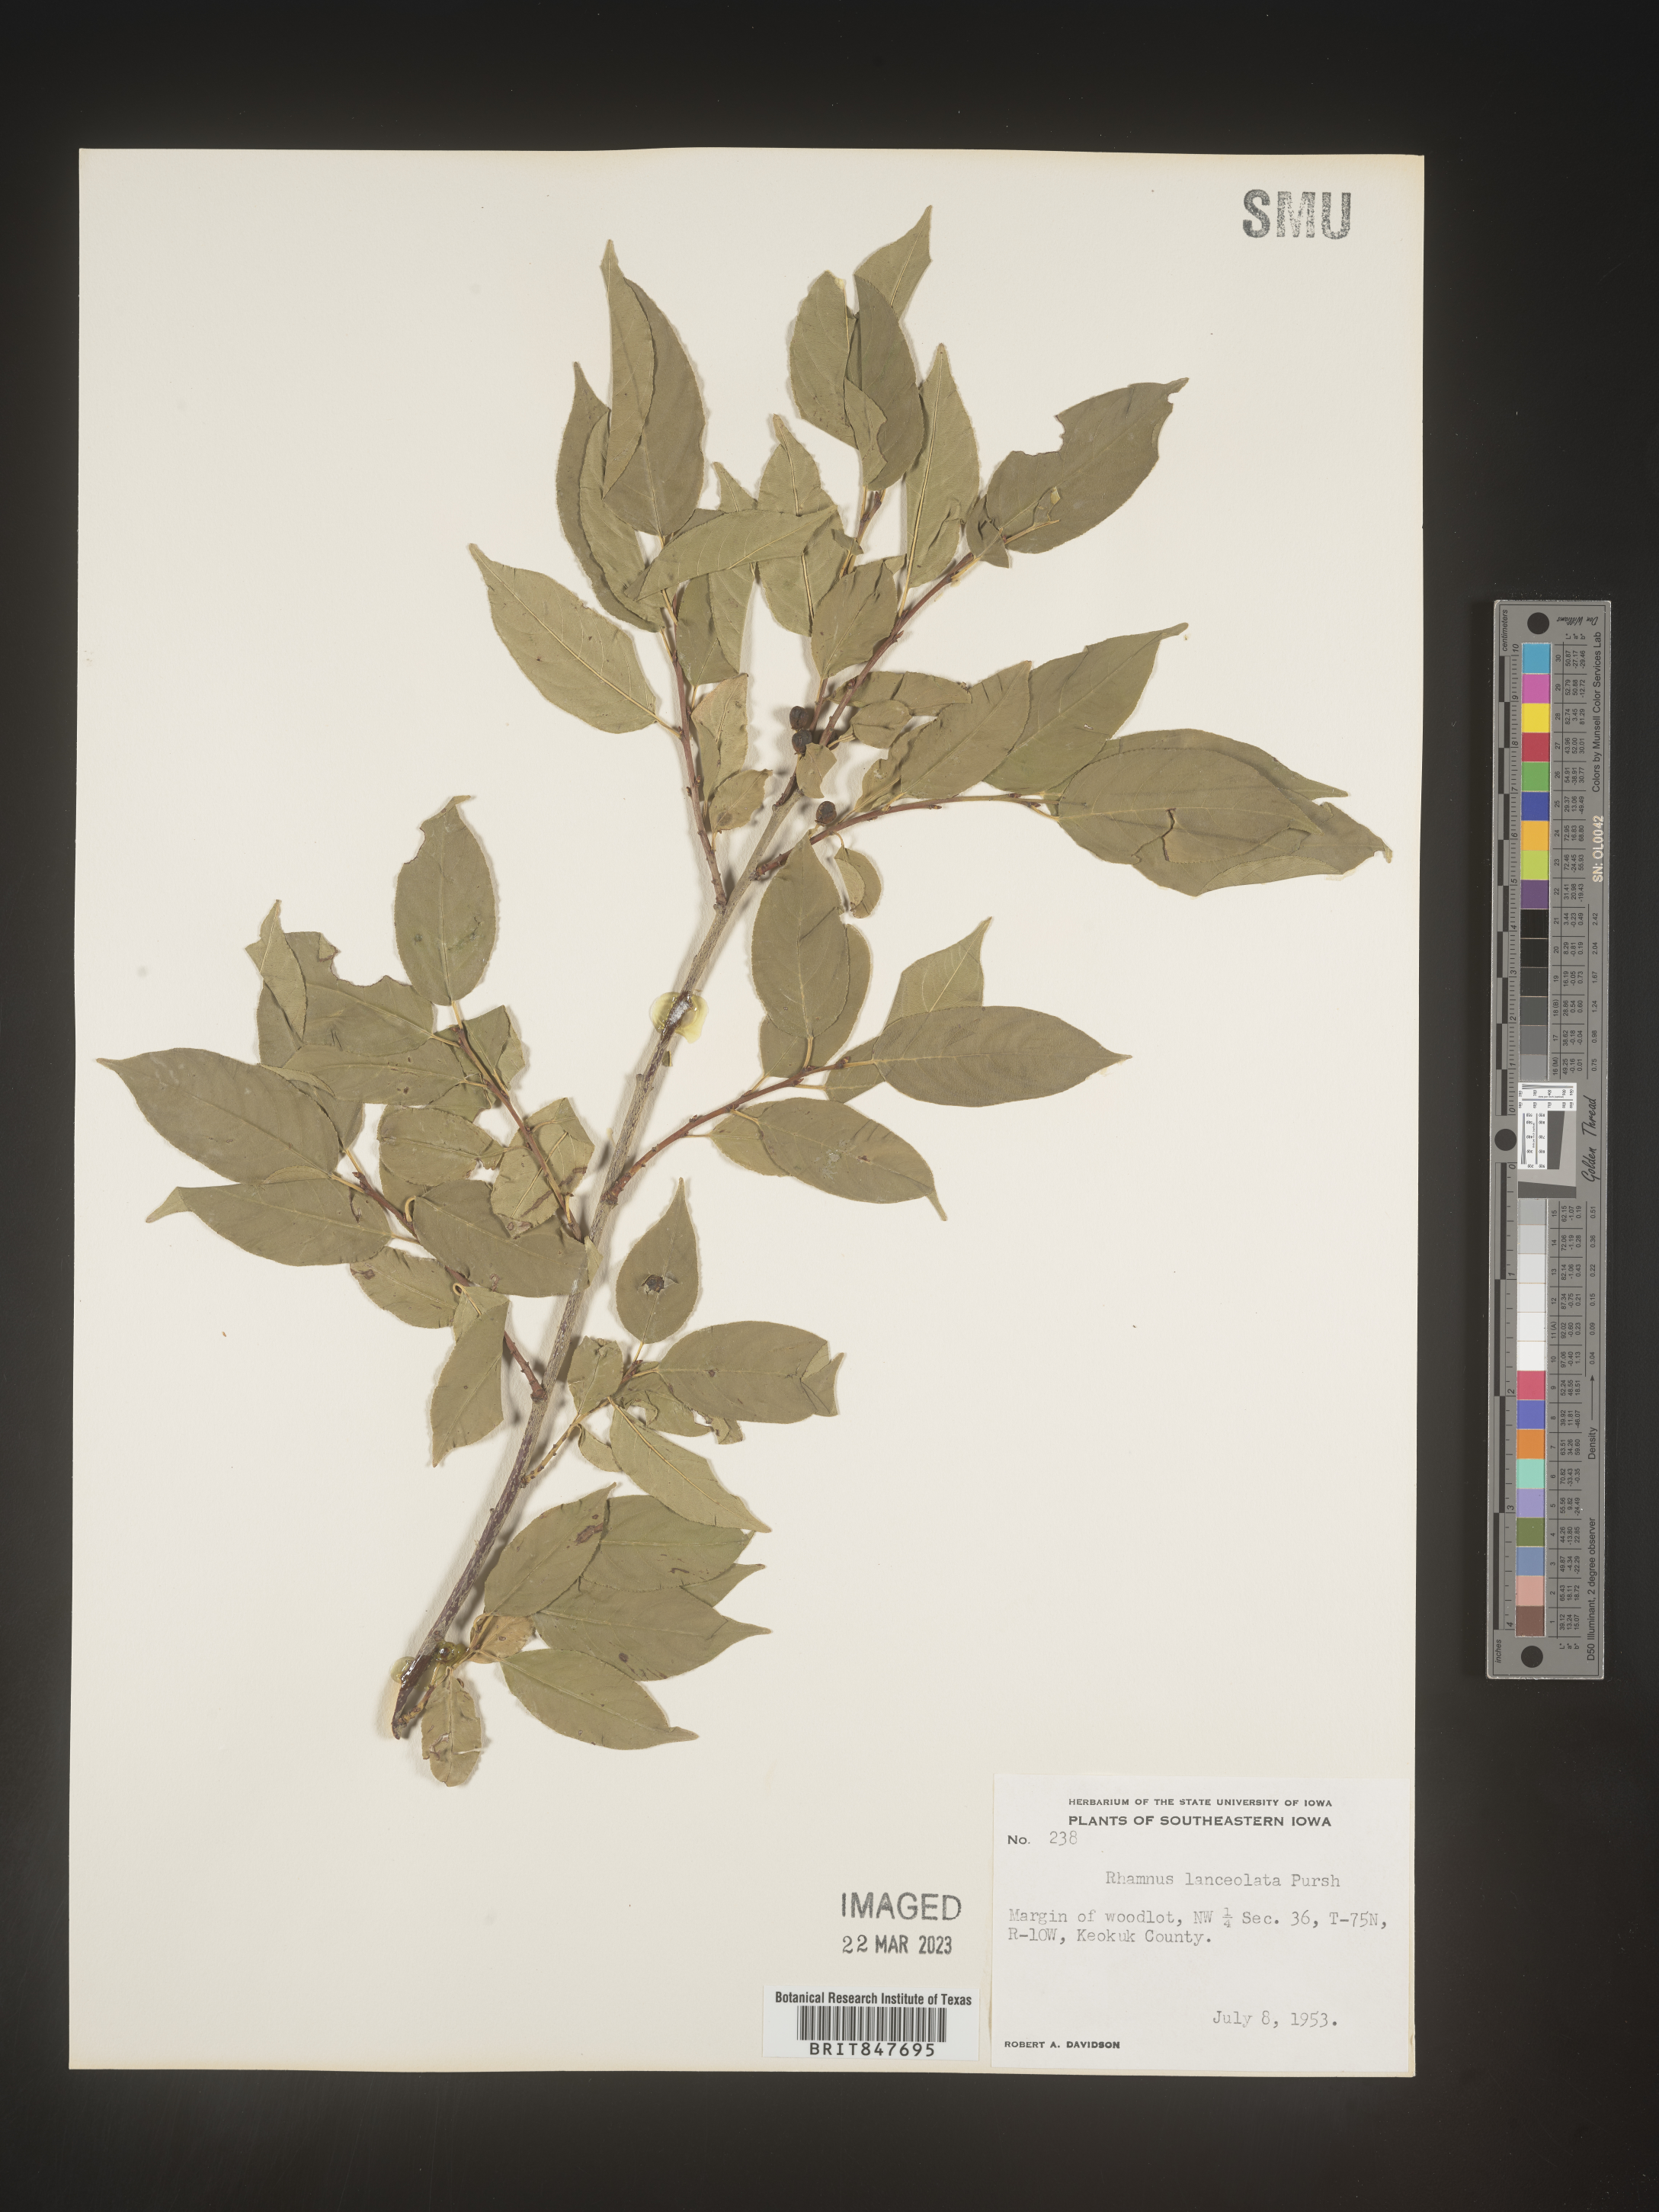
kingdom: Plantae
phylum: Tracheophyta
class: Magnoliopsida
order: Rosales
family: Rhamnaceae
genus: Endotropis
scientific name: Endotropis lanceolata
